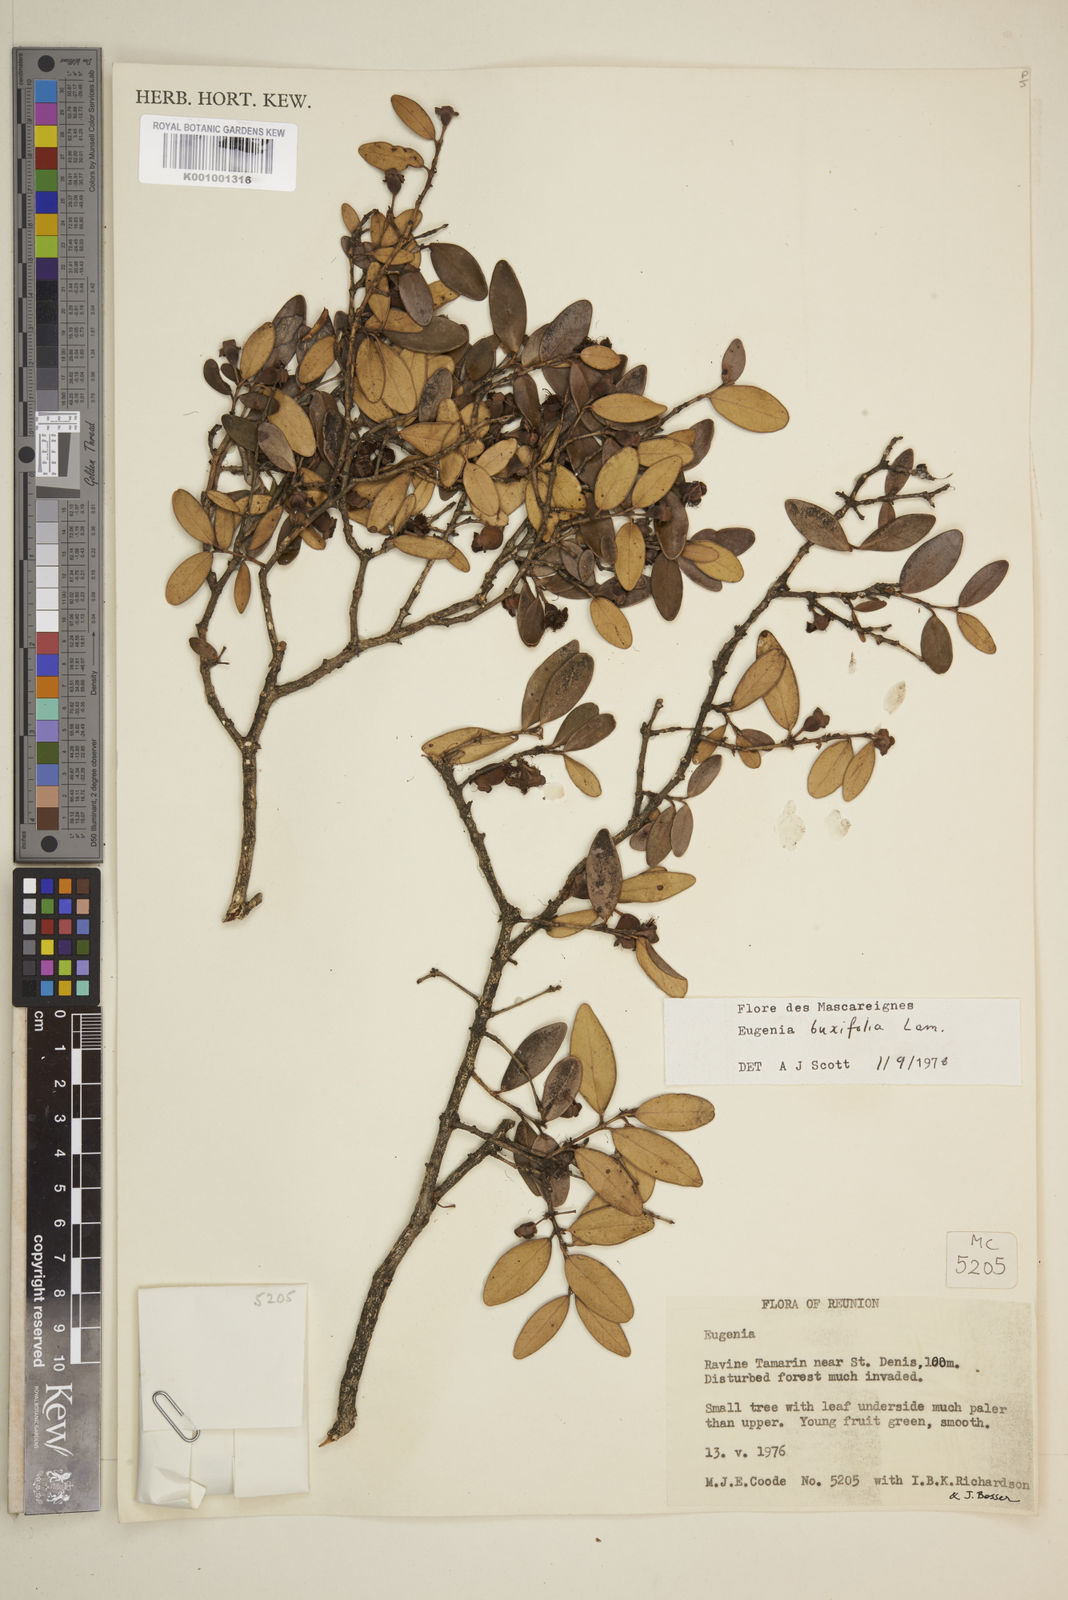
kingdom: Plantae
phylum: Tracheophyta
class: Magnoliopsida
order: Myrtales
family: Myrtaceae
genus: Eugenia
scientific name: Eugenia buxifolia
